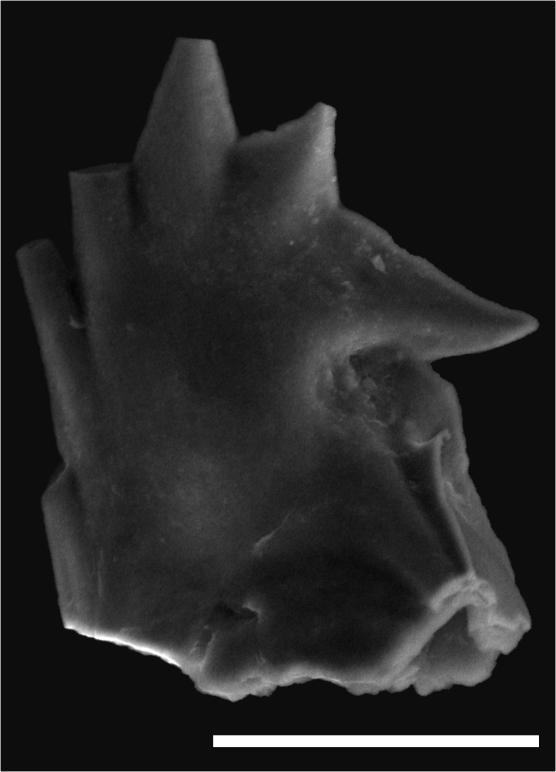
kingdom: Animalia
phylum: Chordata
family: Balognathidae
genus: Amorphognathus
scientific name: Amorphognathus
